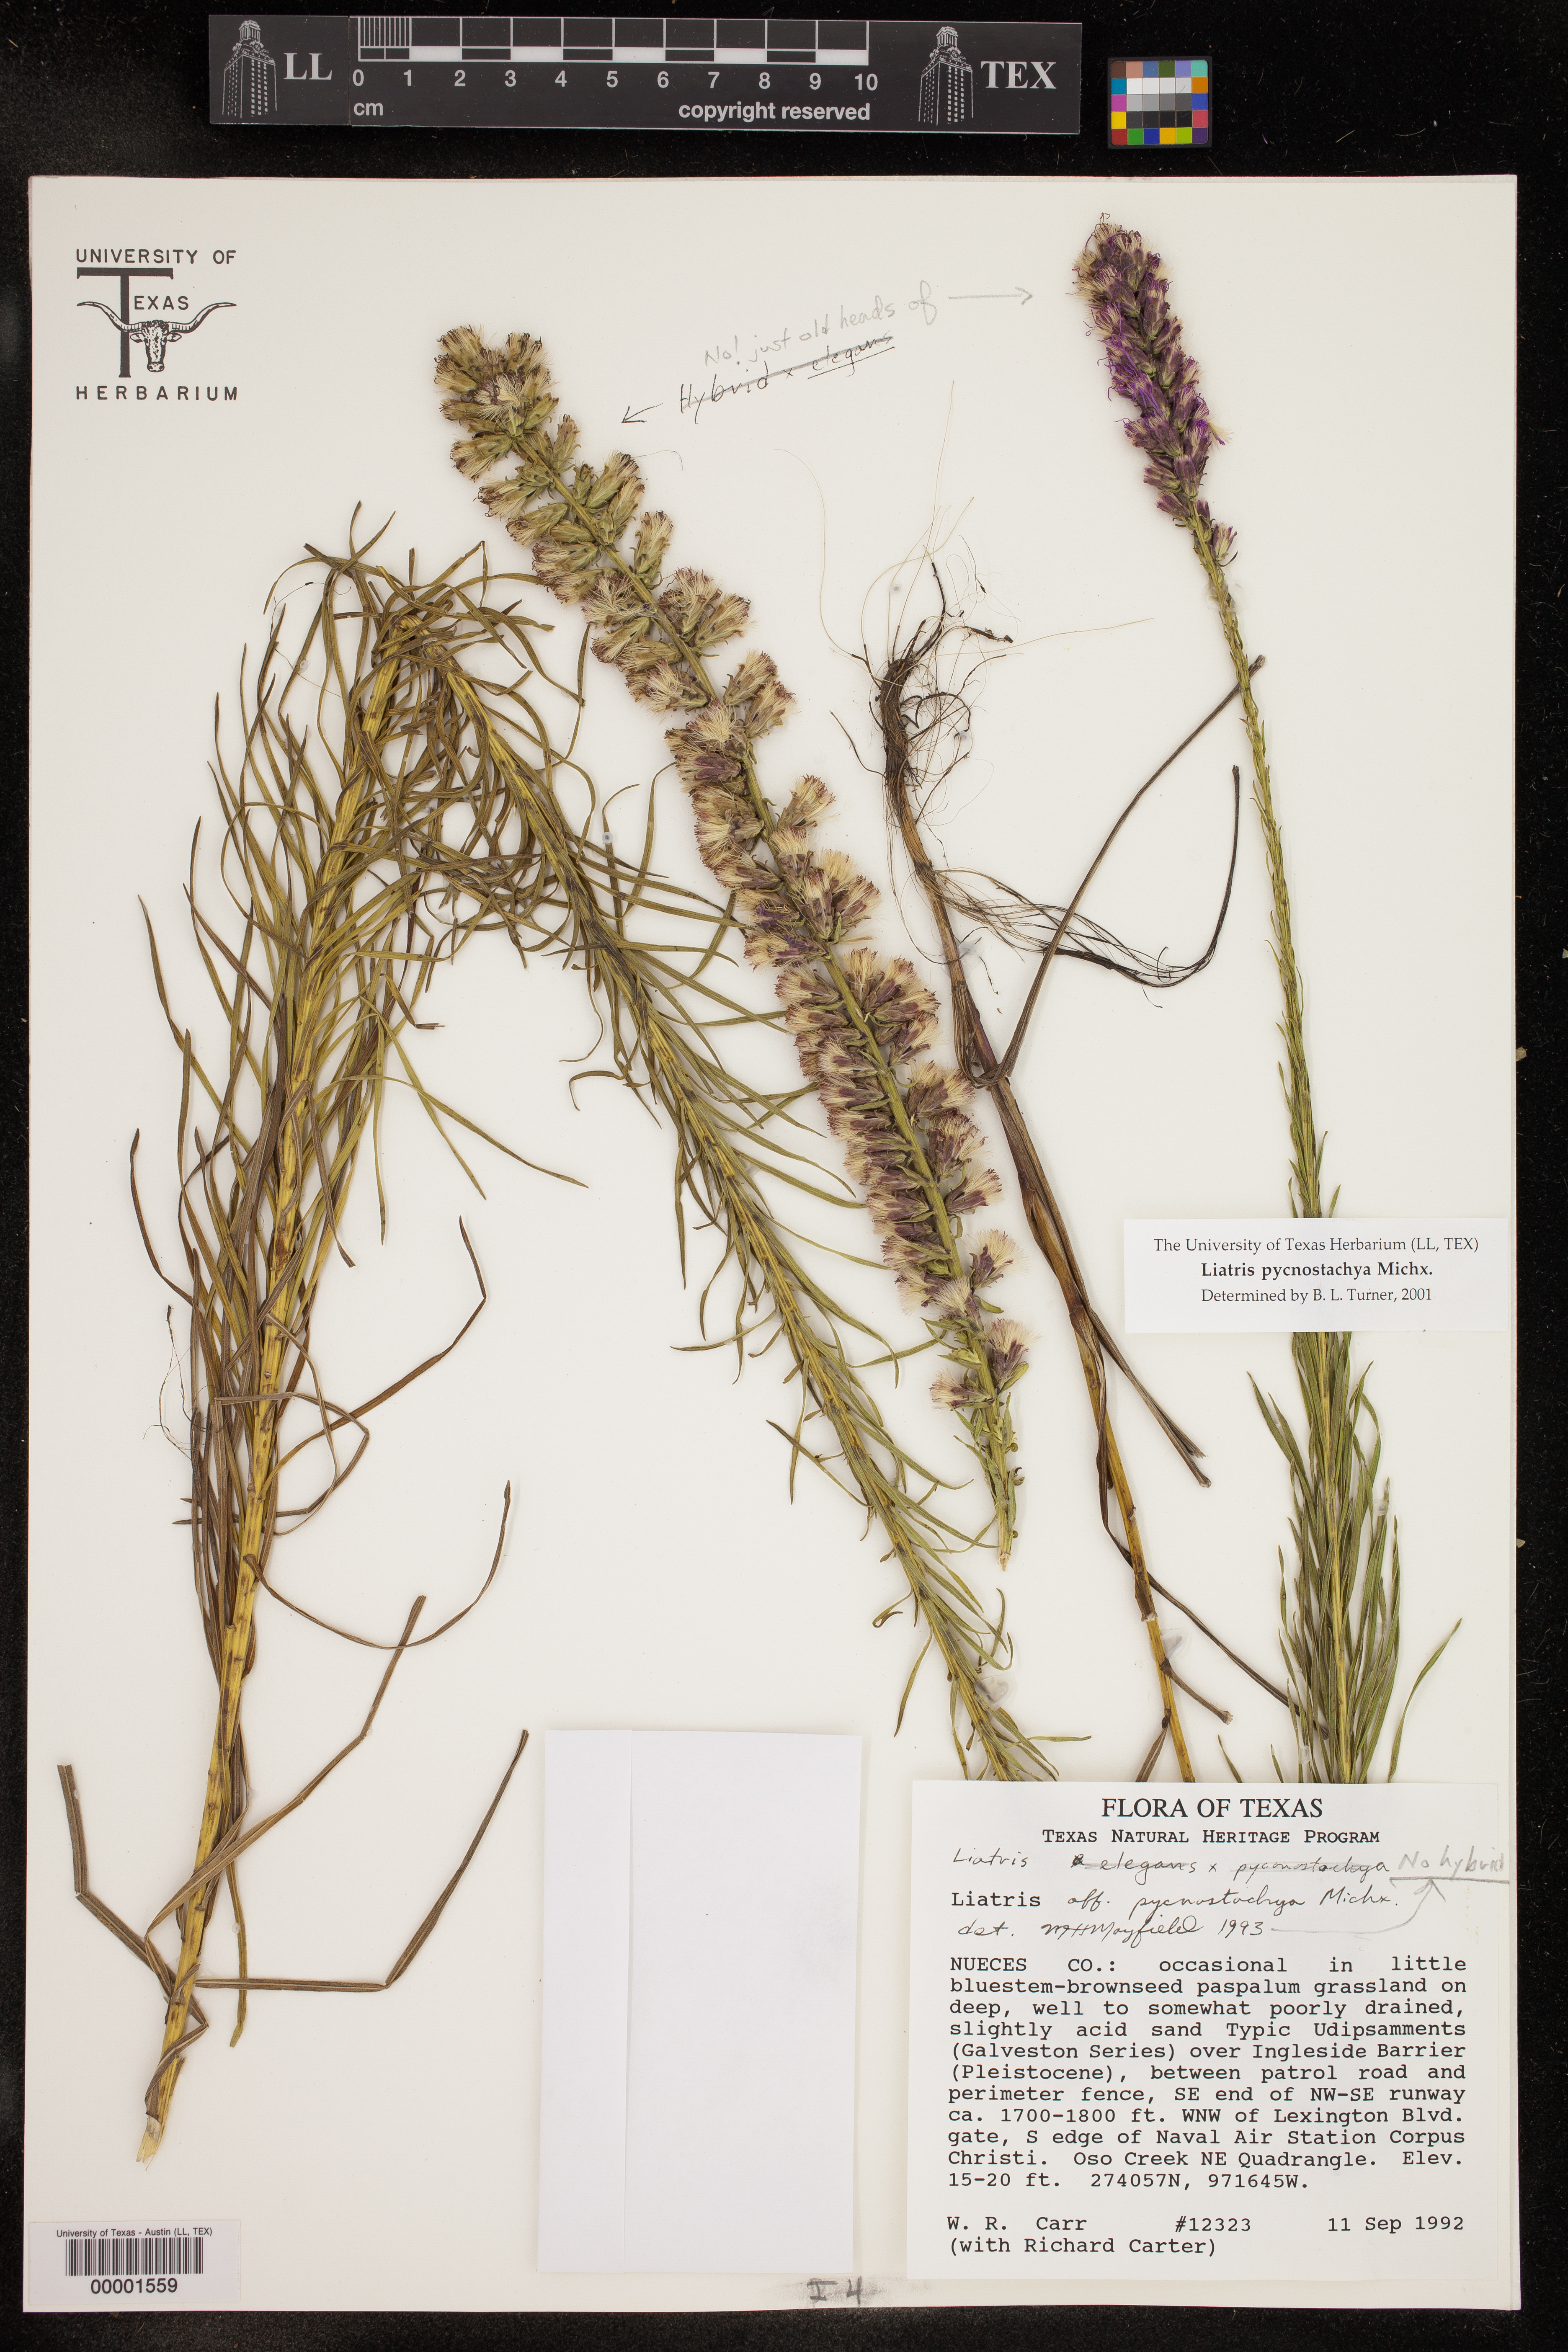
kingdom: Plantae
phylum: Tracheophyta
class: Magnoliopsida
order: Asterales
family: Asteraceae
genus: Liatris
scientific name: Liatris pycnostachya
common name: Cattail gayfeather
